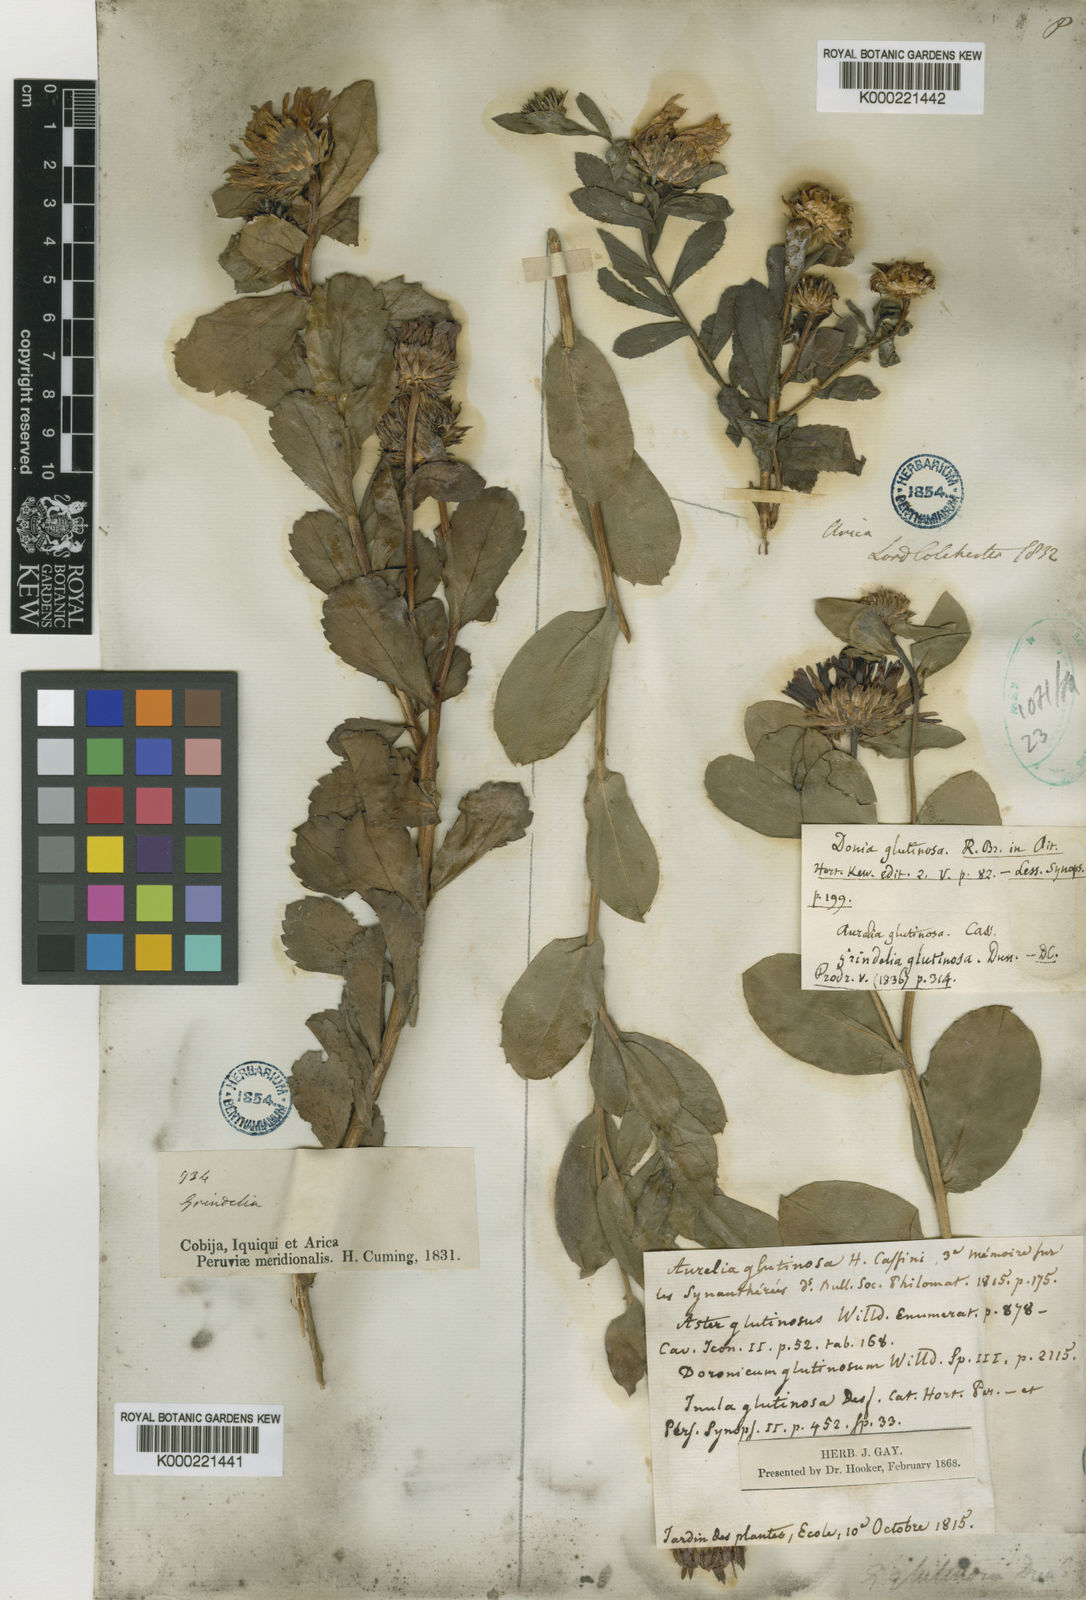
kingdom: Plantae
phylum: Tracheophyta
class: Magnoliopsida
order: Asterales
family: Asteraceae
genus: Haplopappus
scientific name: Haplopappus chrysanthemifolius
